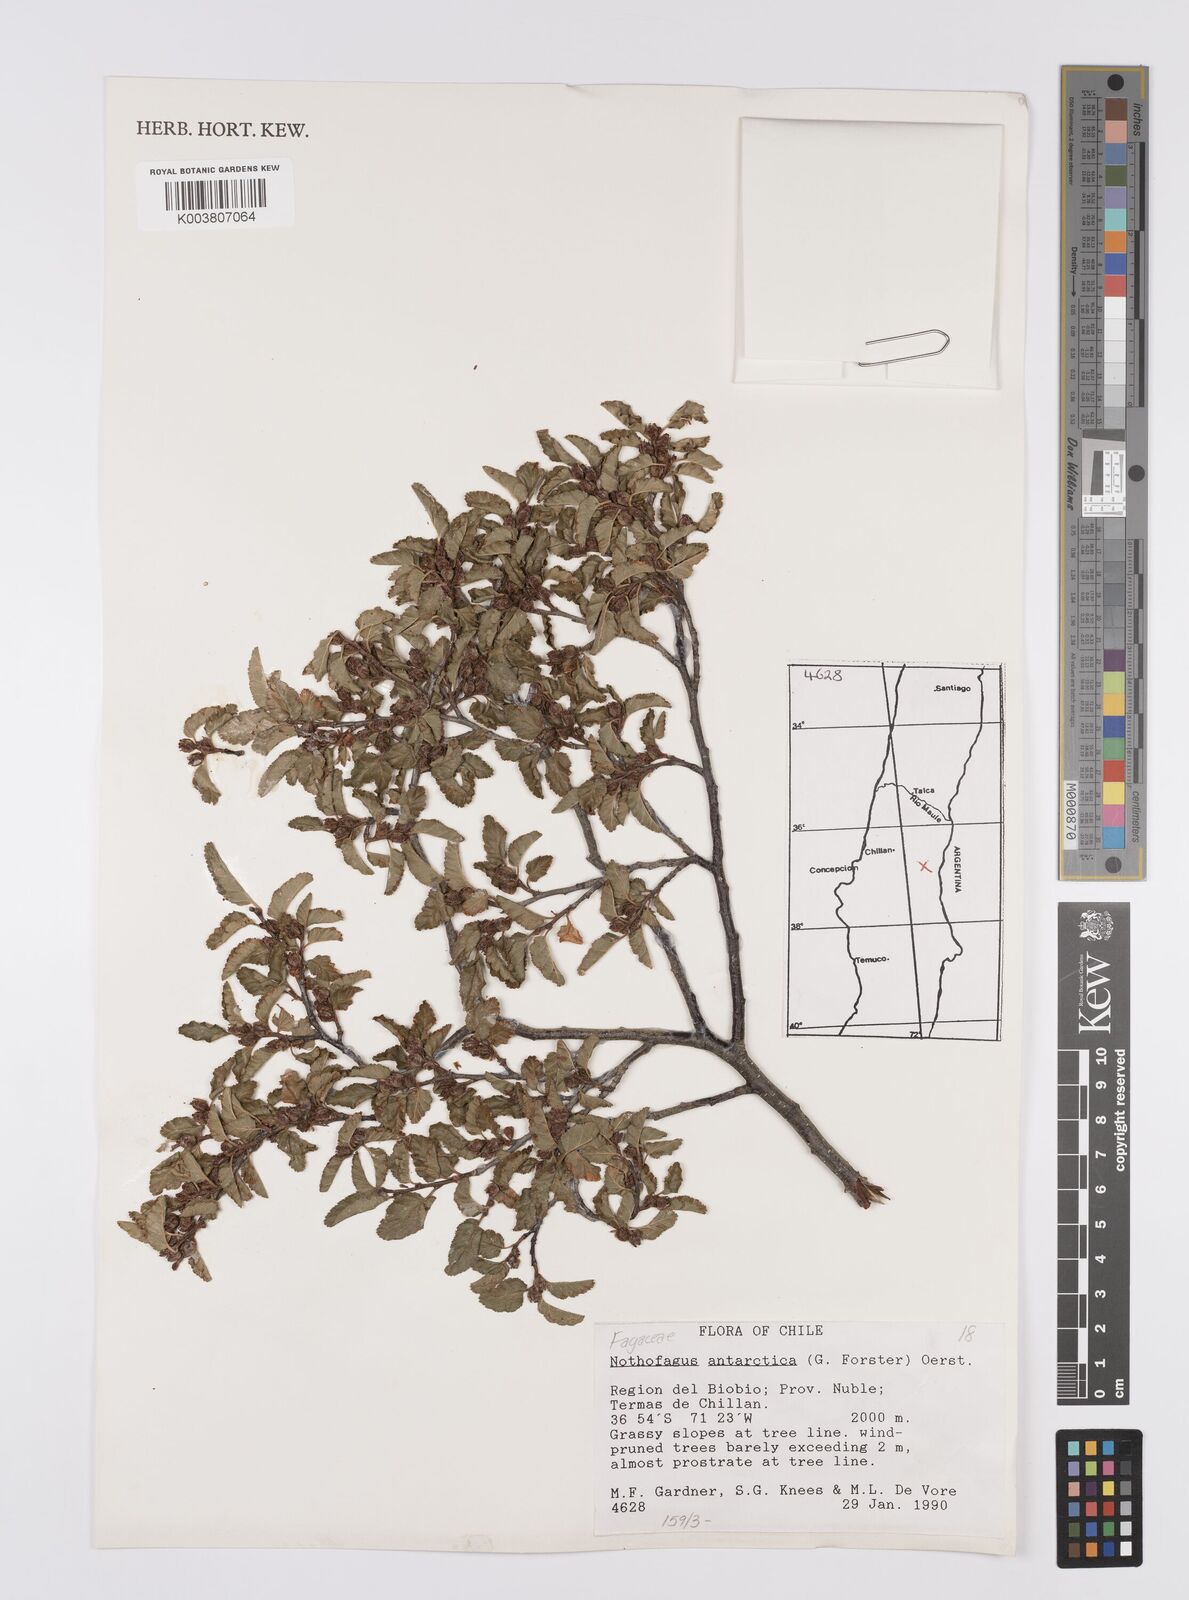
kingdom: Plantae
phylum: Tracheophyta
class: Magnoliopsida
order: Fagales
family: Nothofagaceae
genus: Nothofagus
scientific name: Nothofagus antarctica
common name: Antarctic beech
